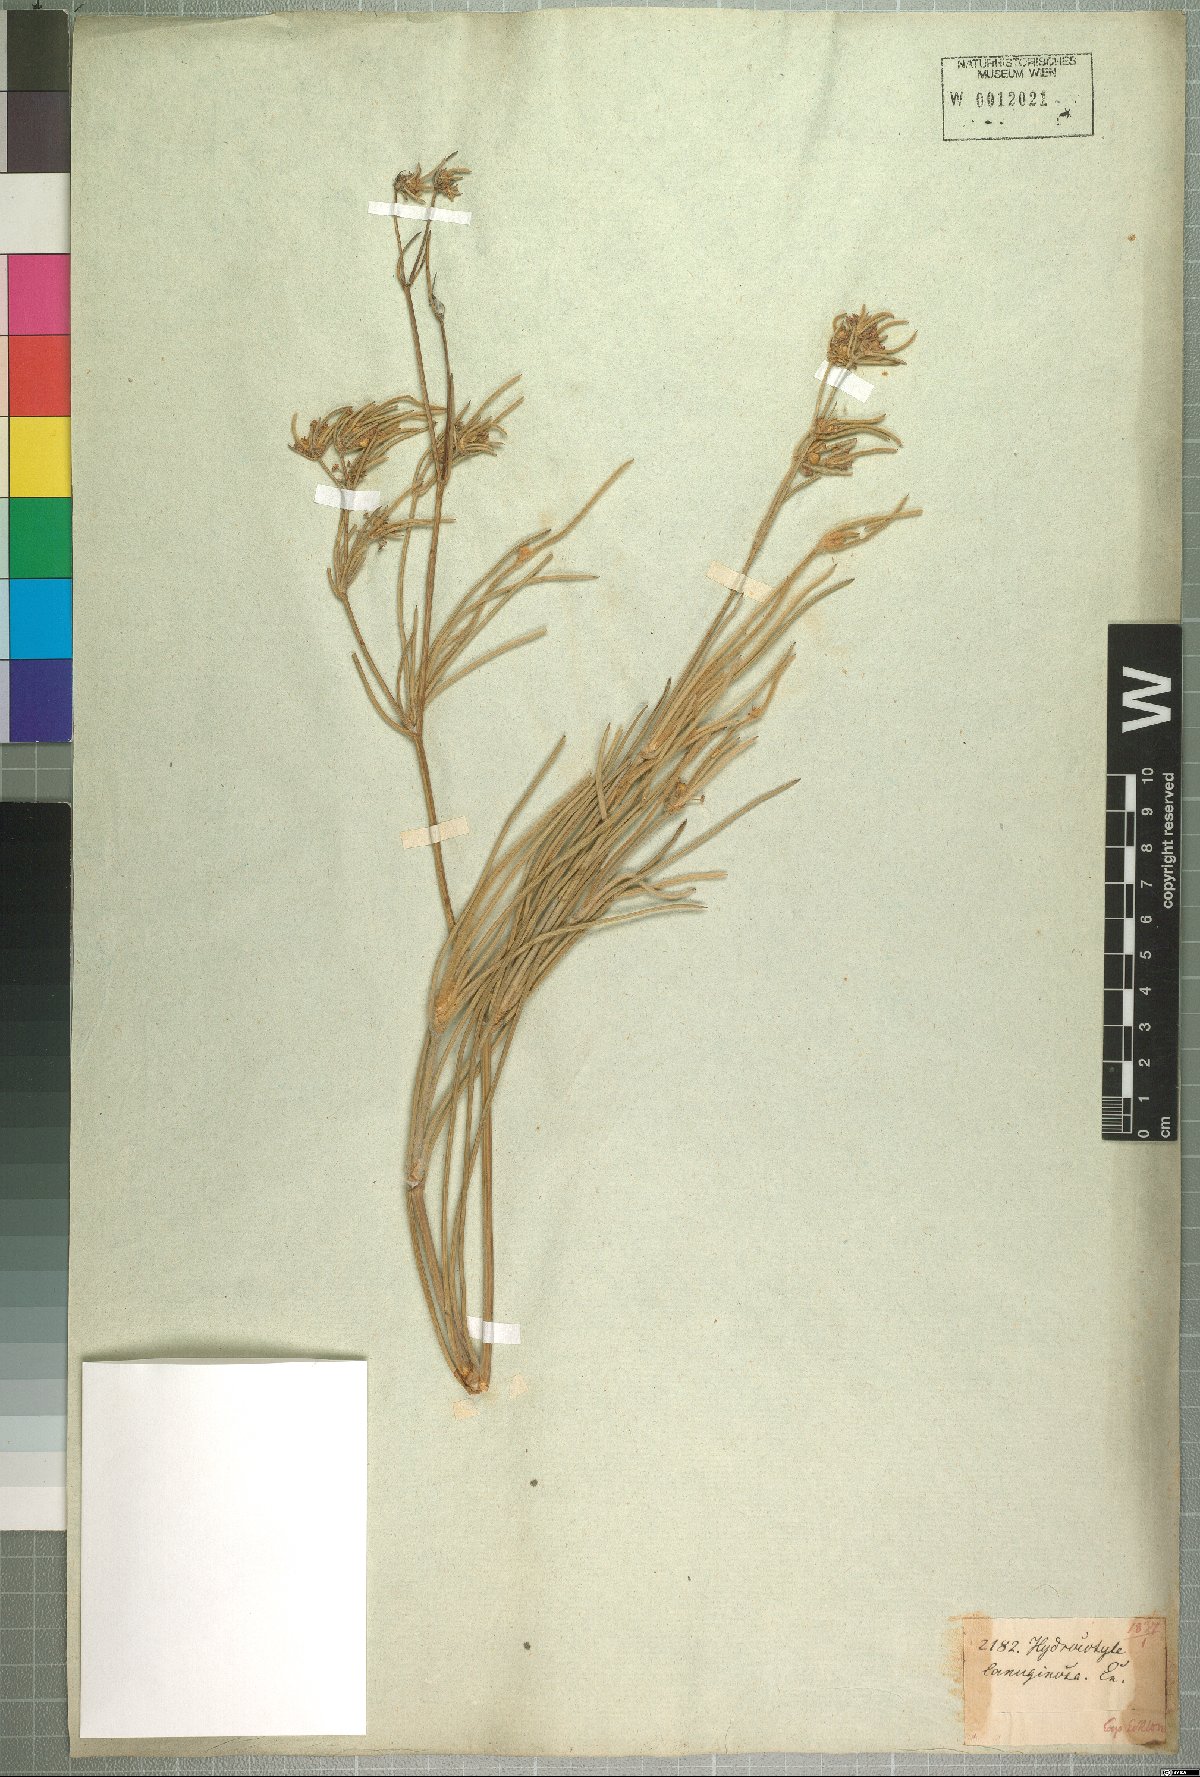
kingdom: Plantae
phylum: Tracheophyta
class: Magnoliopsida
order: Apiales
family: Apiaceae
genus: Centella
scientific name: Centella virgata
